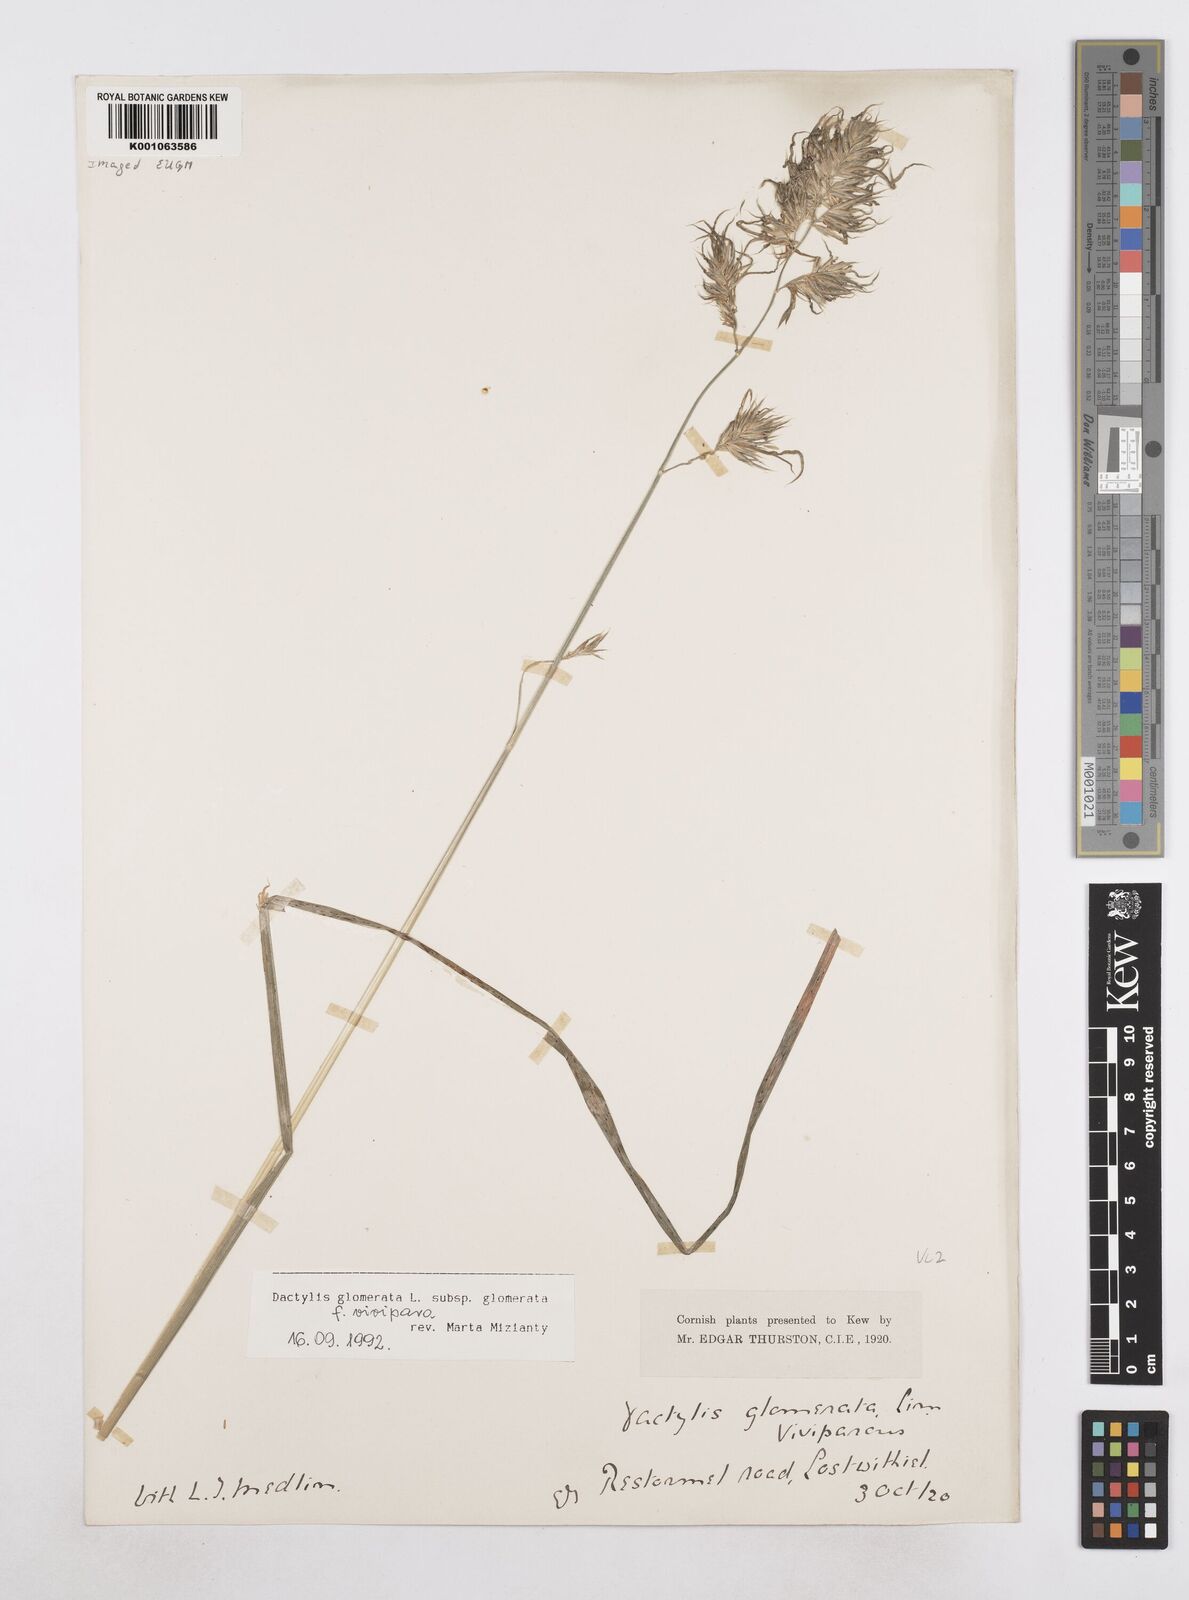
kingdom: Plantae
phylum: Tracheophyta
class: Liliopsida
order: Poales
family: Poaceae
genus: Dactylis
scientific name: Dactylis glomerata
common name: Orchardgrass
